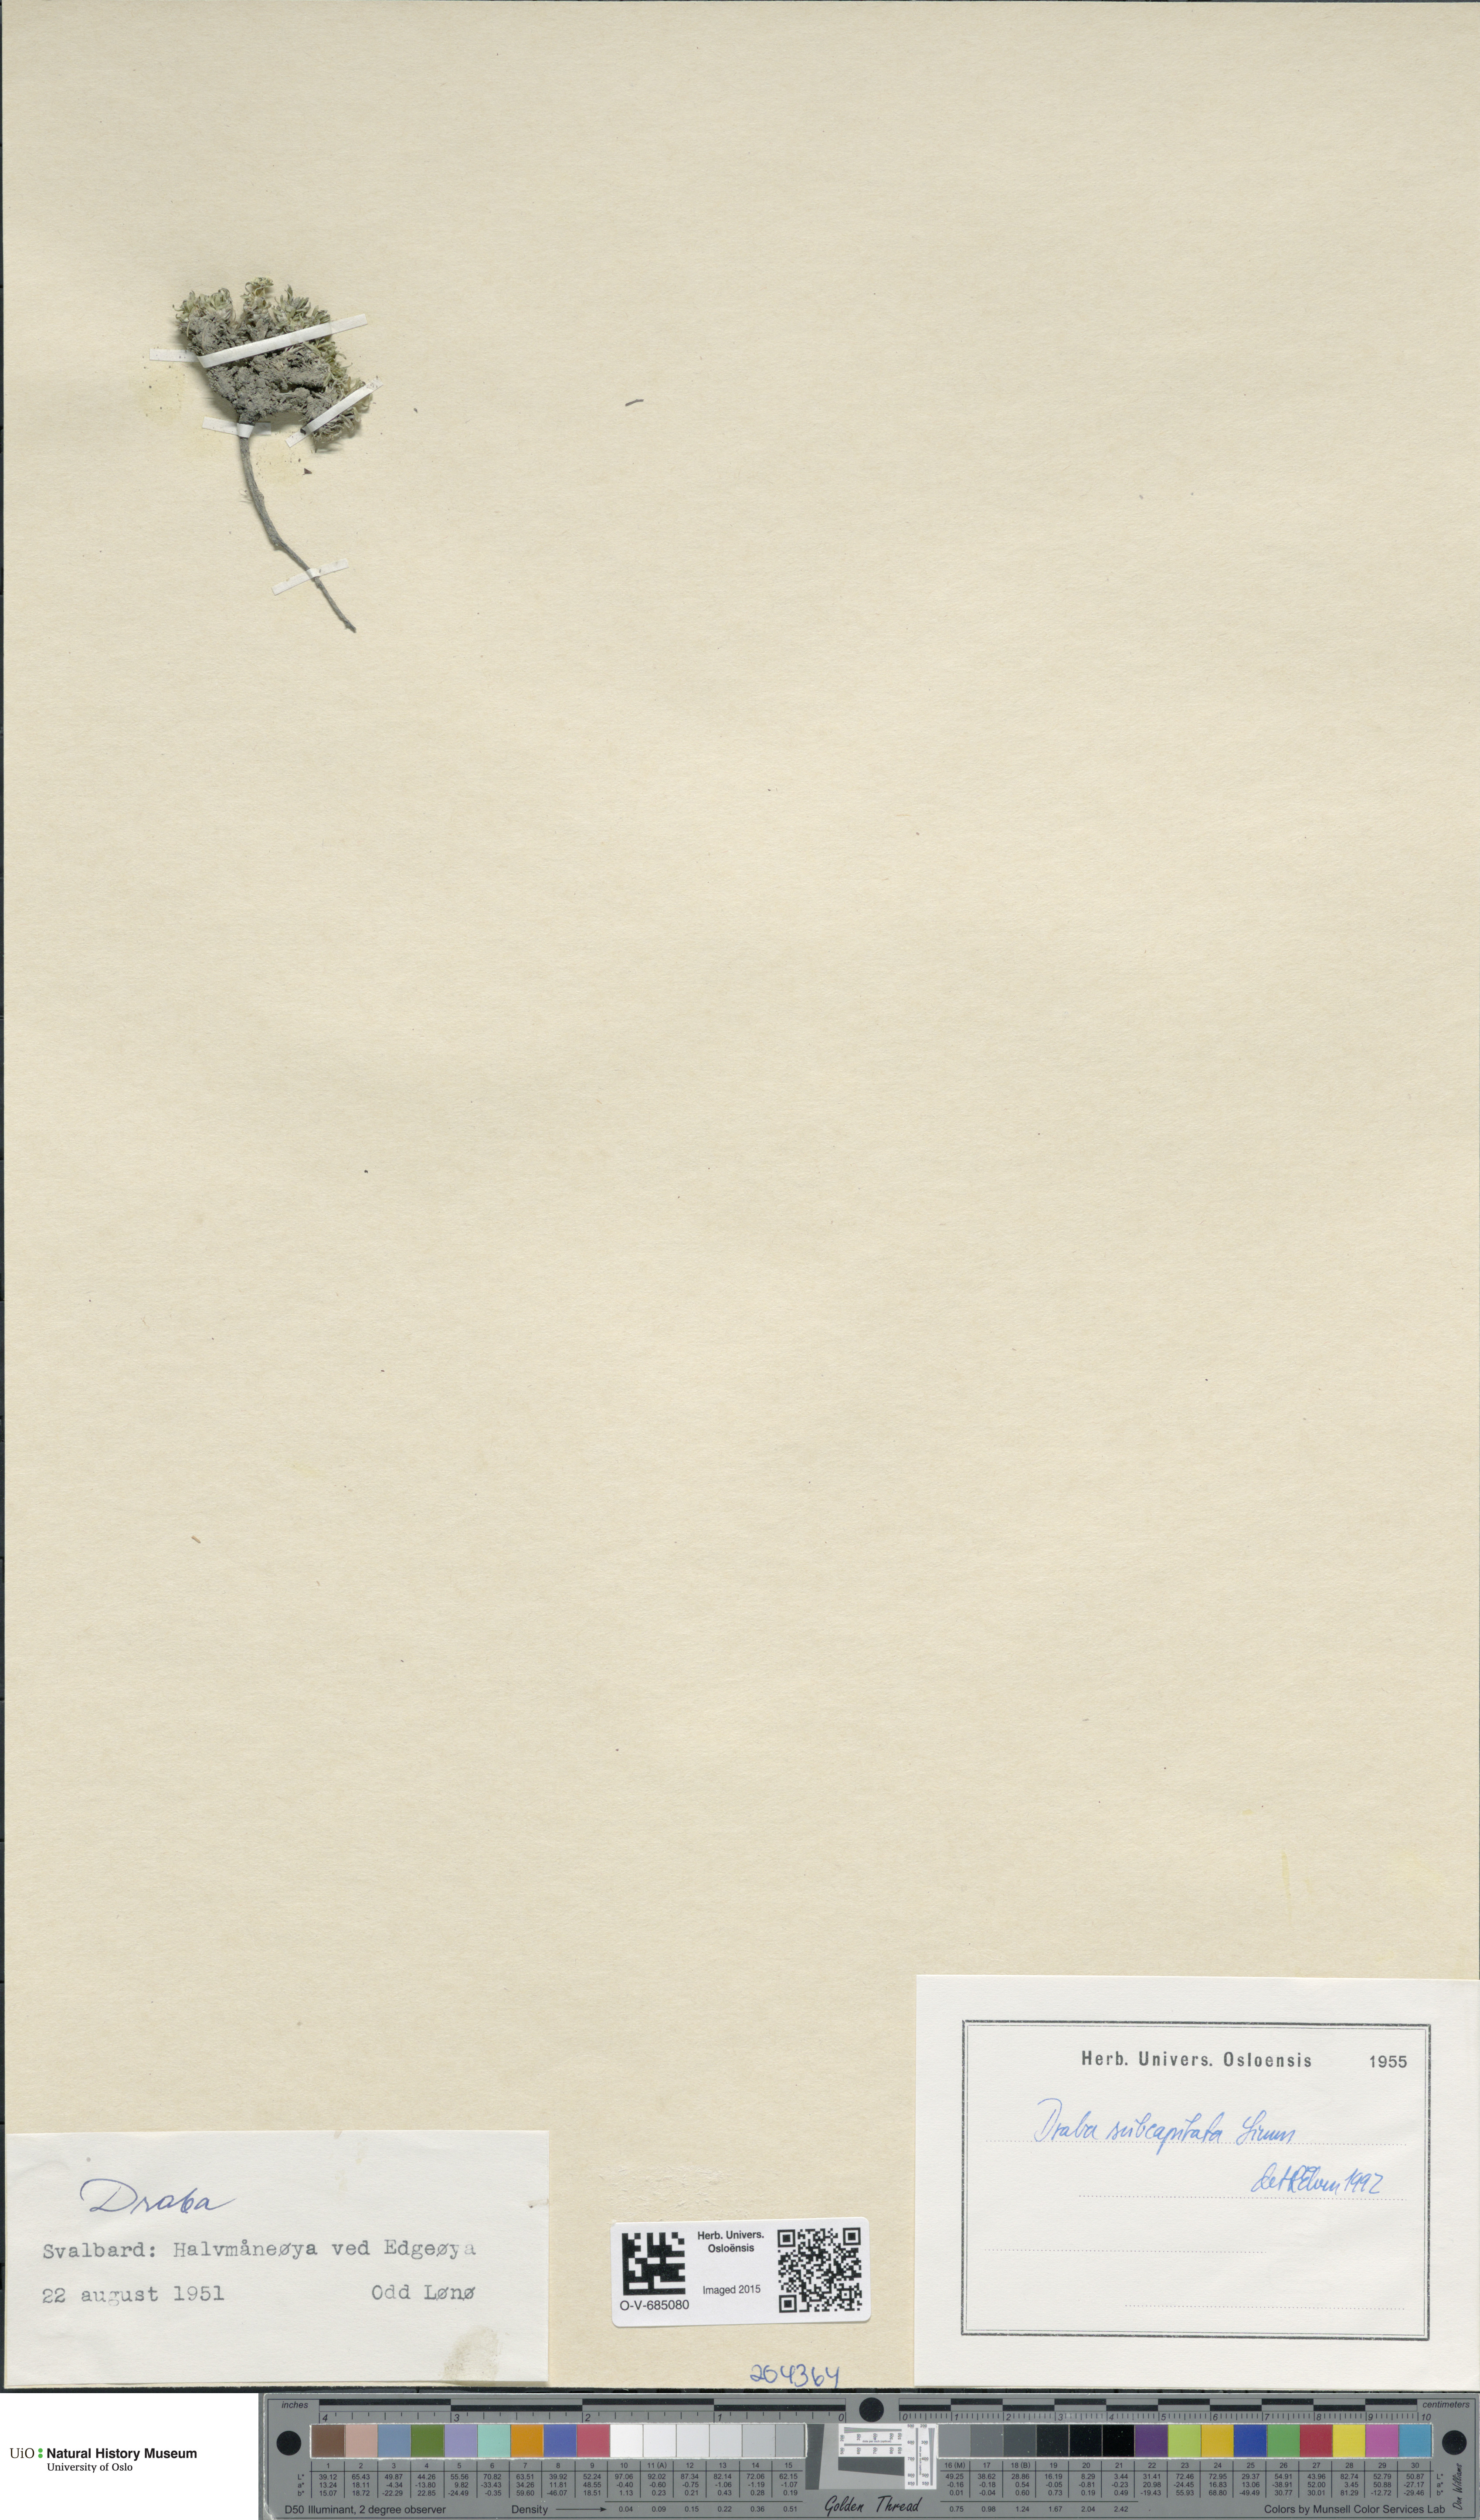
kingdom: Plantae
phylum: Tracheophyta
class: Magnoliopsida
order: Brassicales
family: Brassicaceae
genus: Draba
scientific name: Draba subcapitata
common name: Ellesmere island draba
